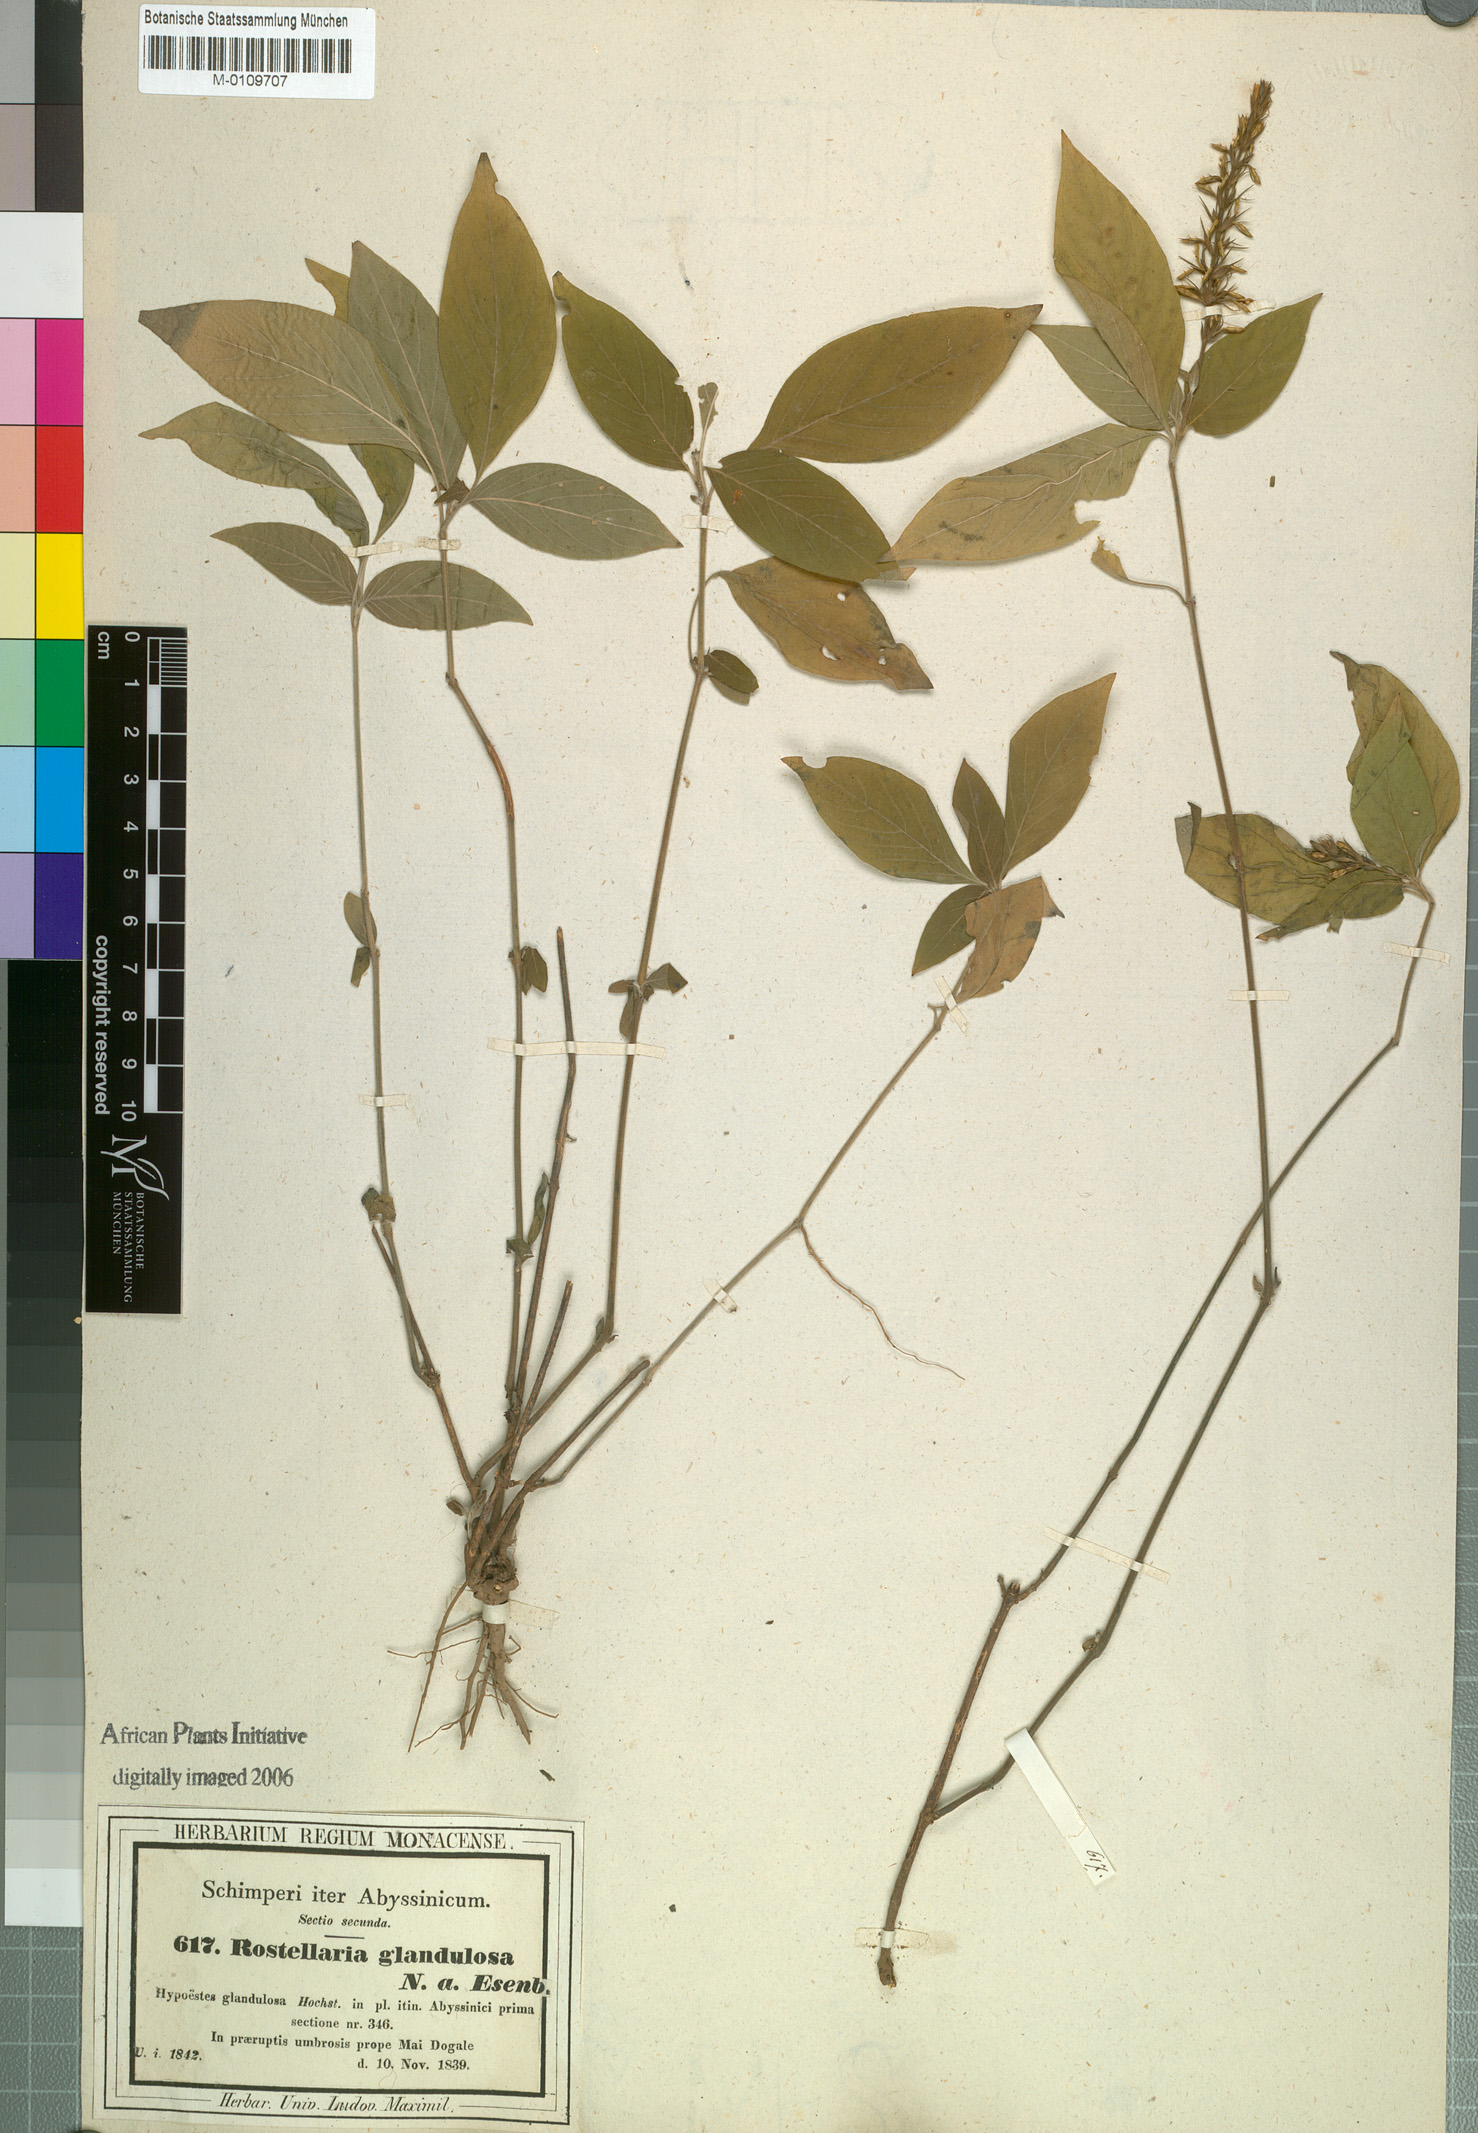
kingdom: Plantae
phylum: Tracheophyta
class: Magnoliopsida
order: Lamiales
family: Acanthaceae
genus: Monothecium
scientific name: Monothecium glandulosum
